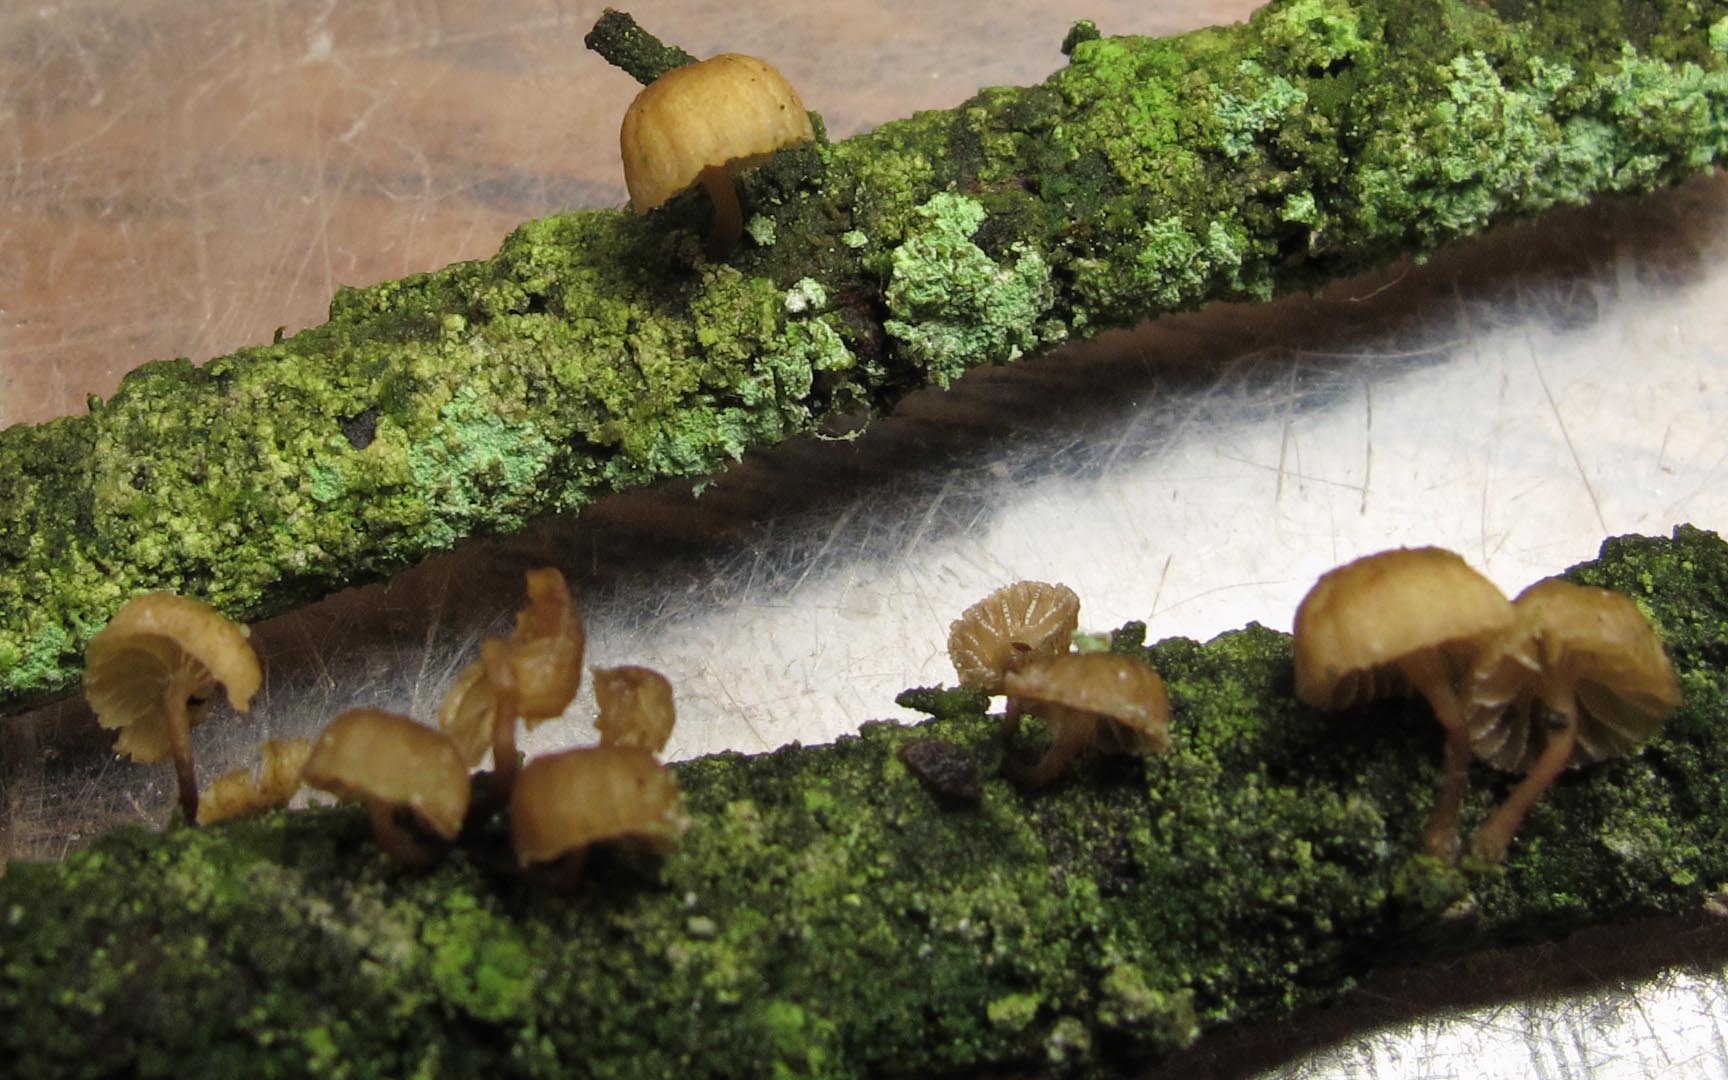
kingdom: Fungi
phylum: Basidiomycota
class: Agaricomycetes
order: Agaricales
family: Mycenaceae
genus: Mycena
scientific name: Mycena juniperina
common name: ene-Huesvamp
